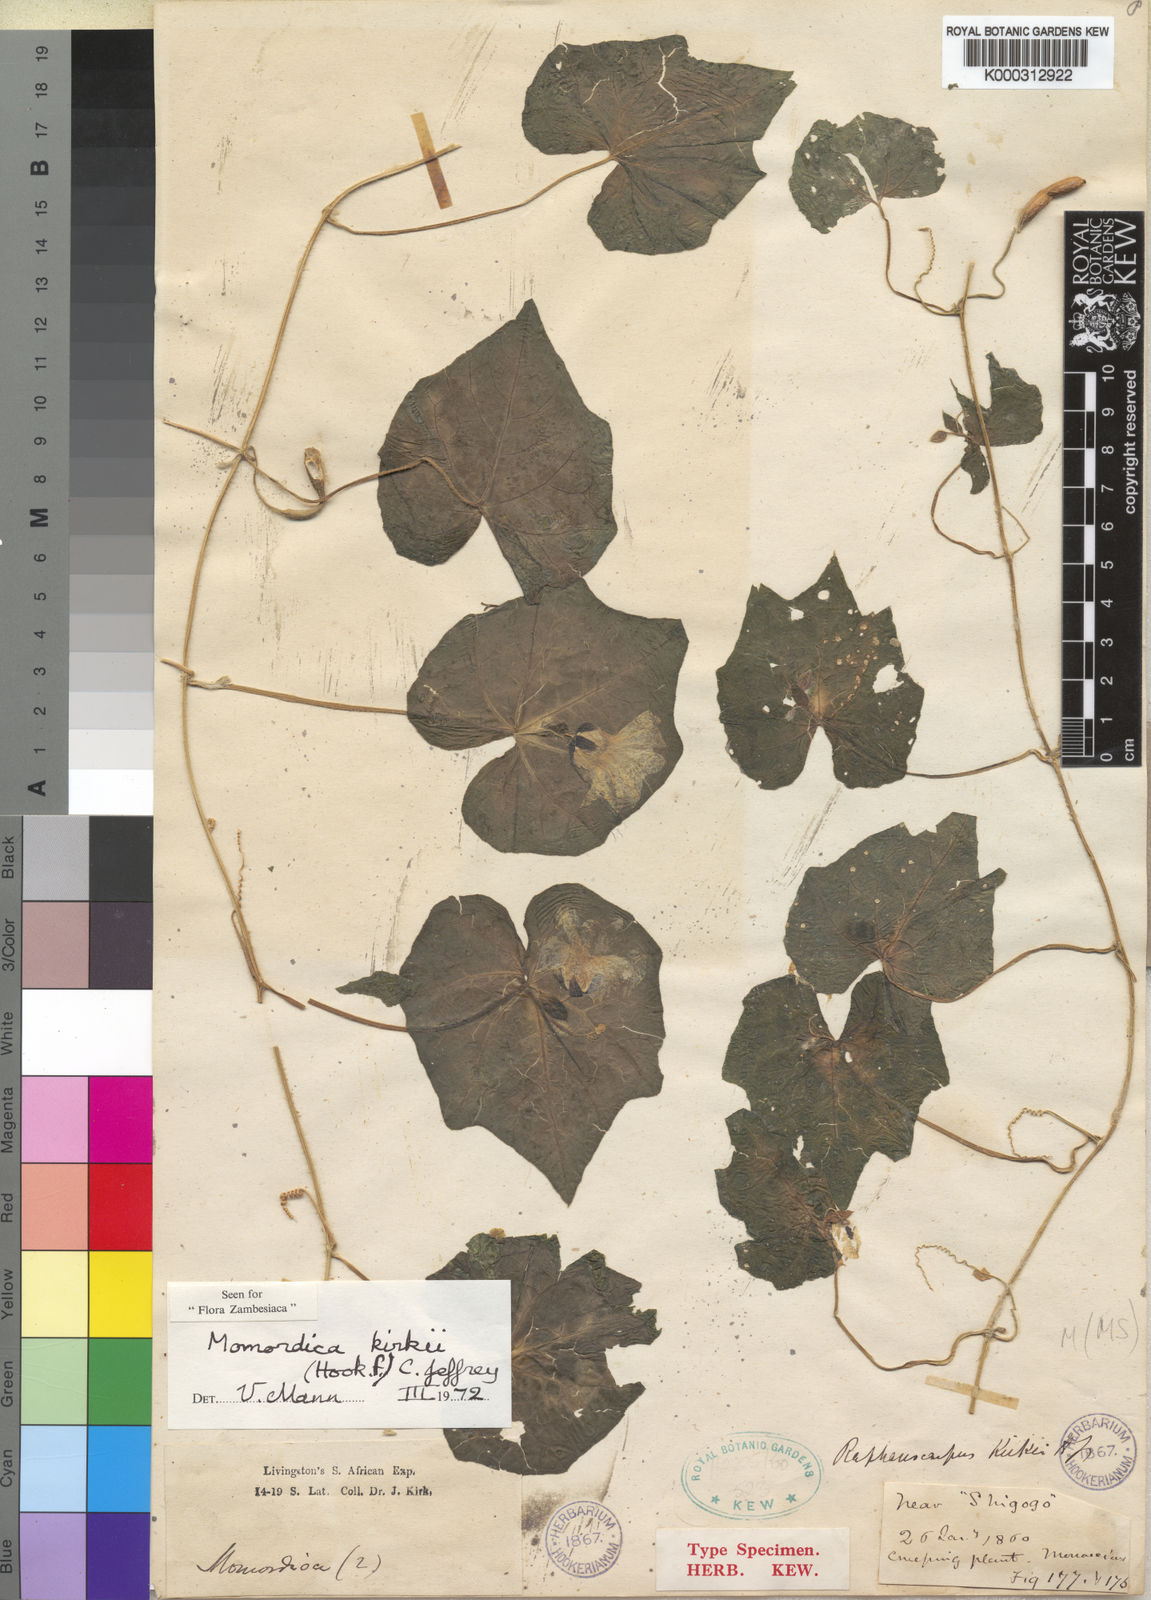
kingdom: Plantae
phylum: Tracheophyta
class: Magnoliopsida
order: Cucurbitales
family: Cucurbitaceae
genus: Momordica
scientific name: Momordica kirkii
